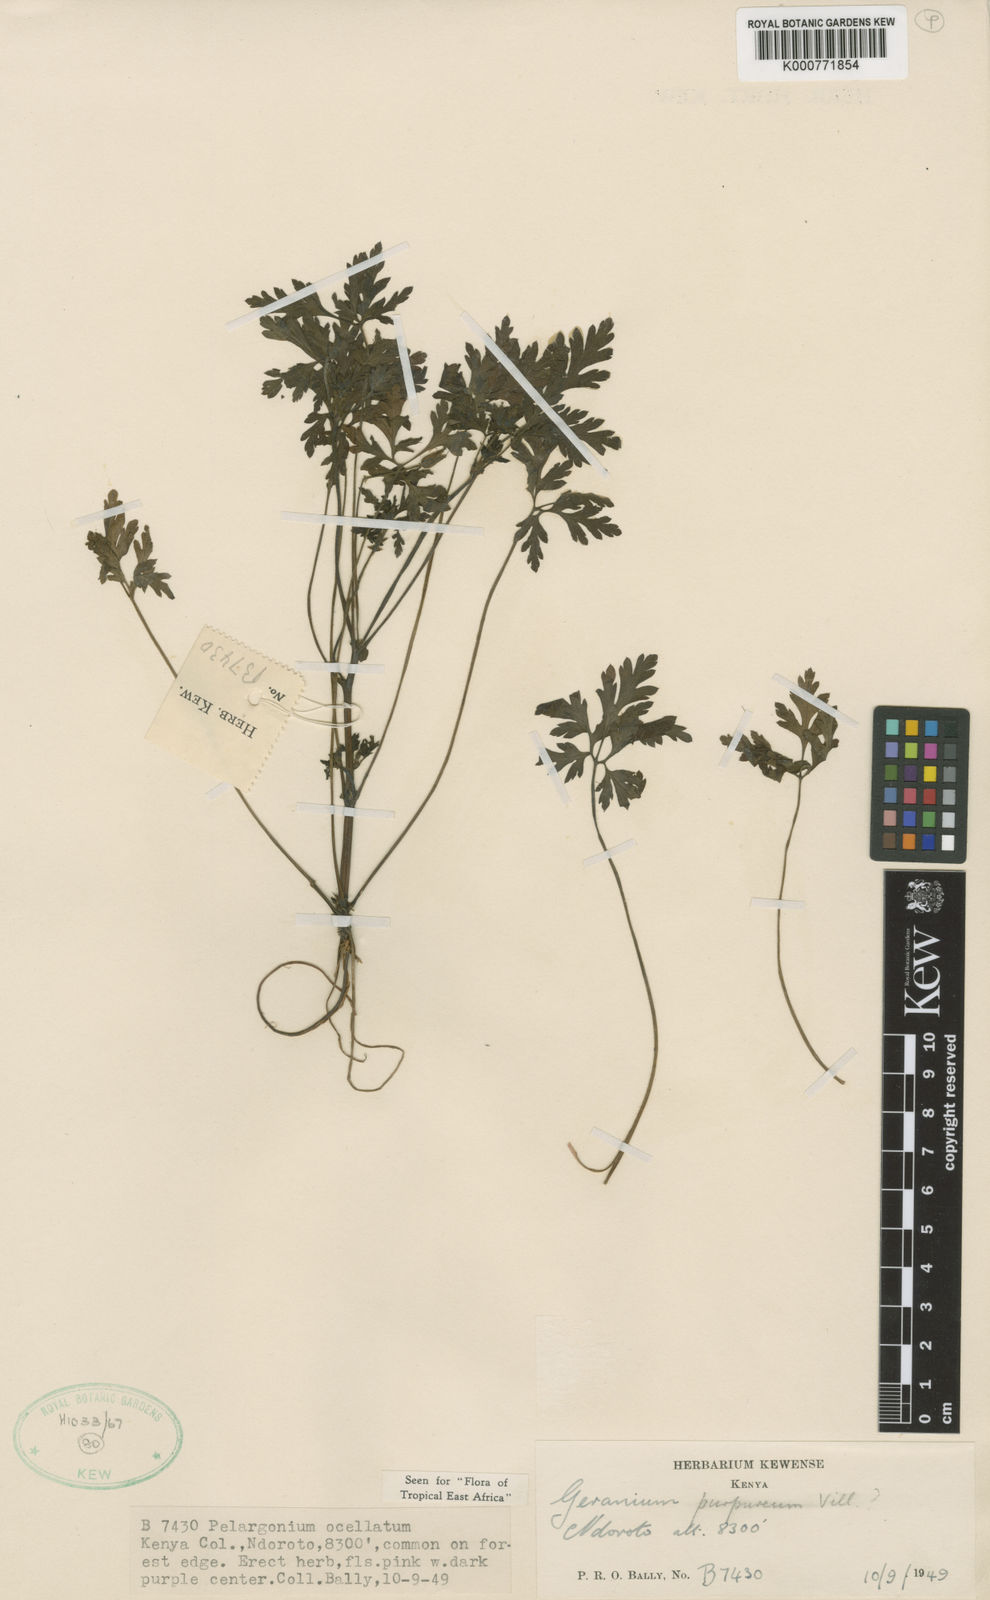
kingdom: Plantae
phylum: Tracheophyta
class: Magnoliopsida
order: Geraniales
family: Geraniaceae
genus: Geranium
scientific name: Geranium purpureum
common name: Little-robin
